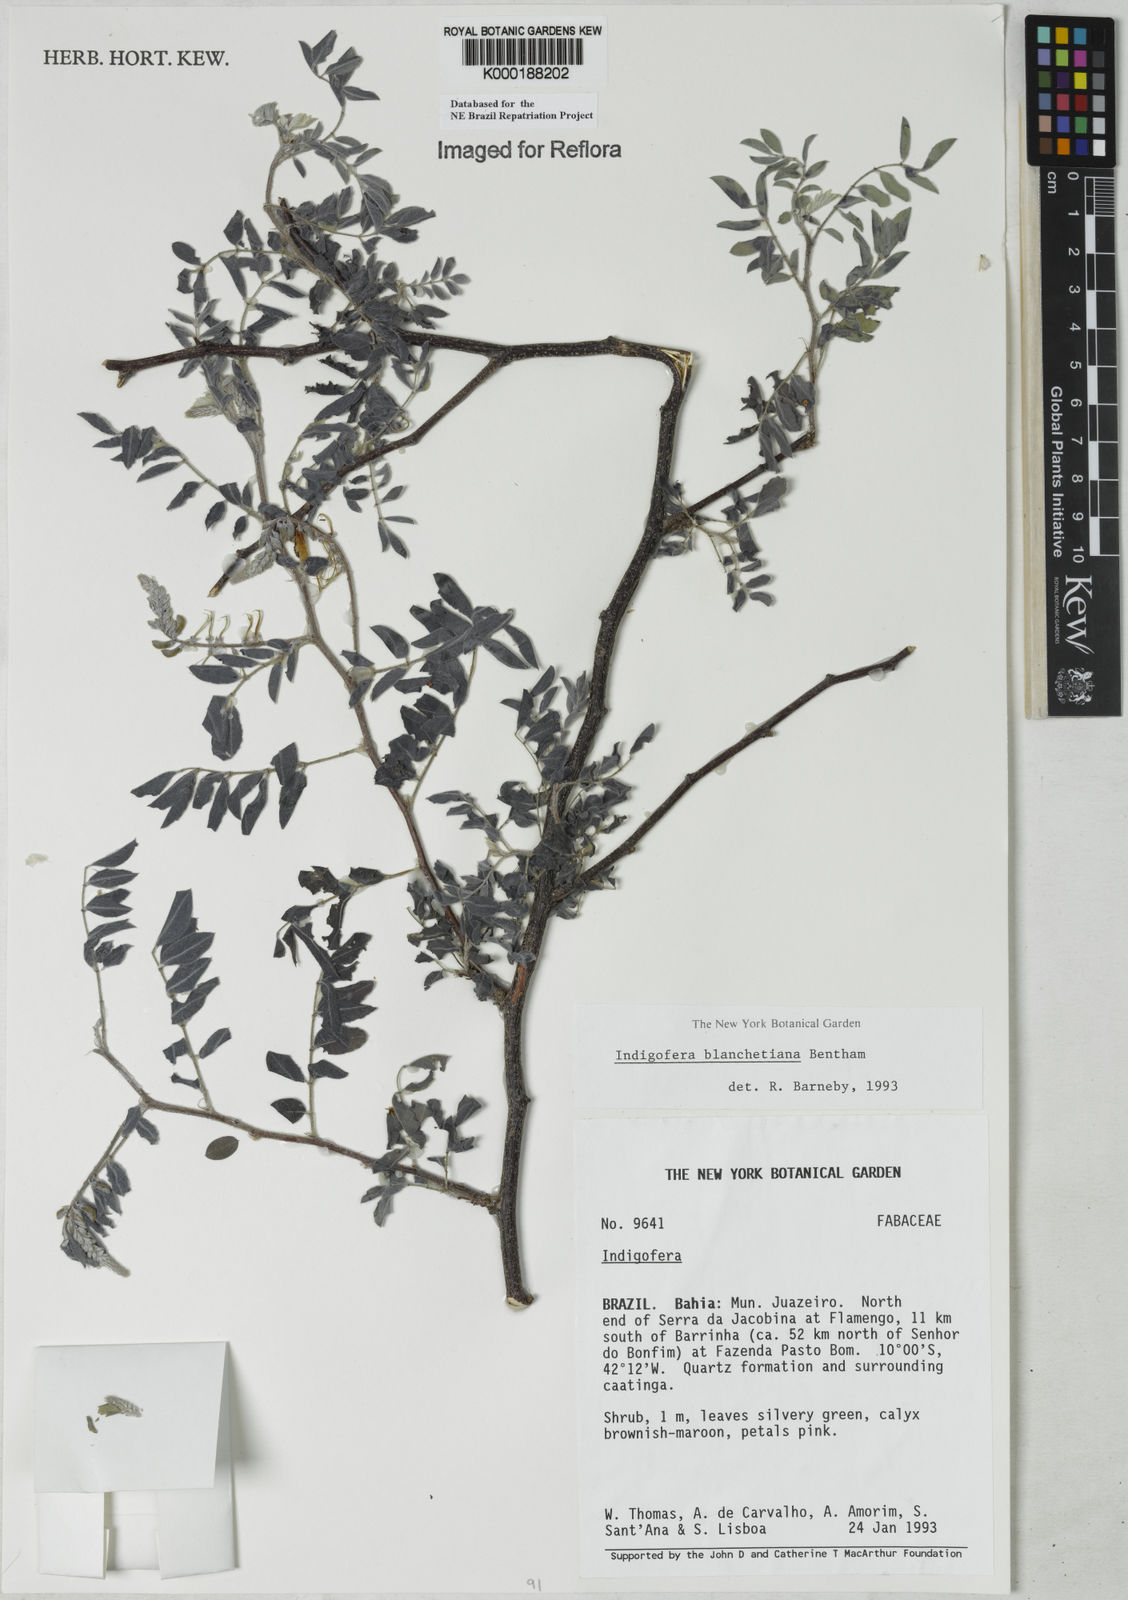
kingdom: Plantae
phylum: Tracheophyta
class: Magnoliopsida
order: Fabales
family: Fabaceae
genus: Indigofera
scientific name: Indigofera blanchetiana
